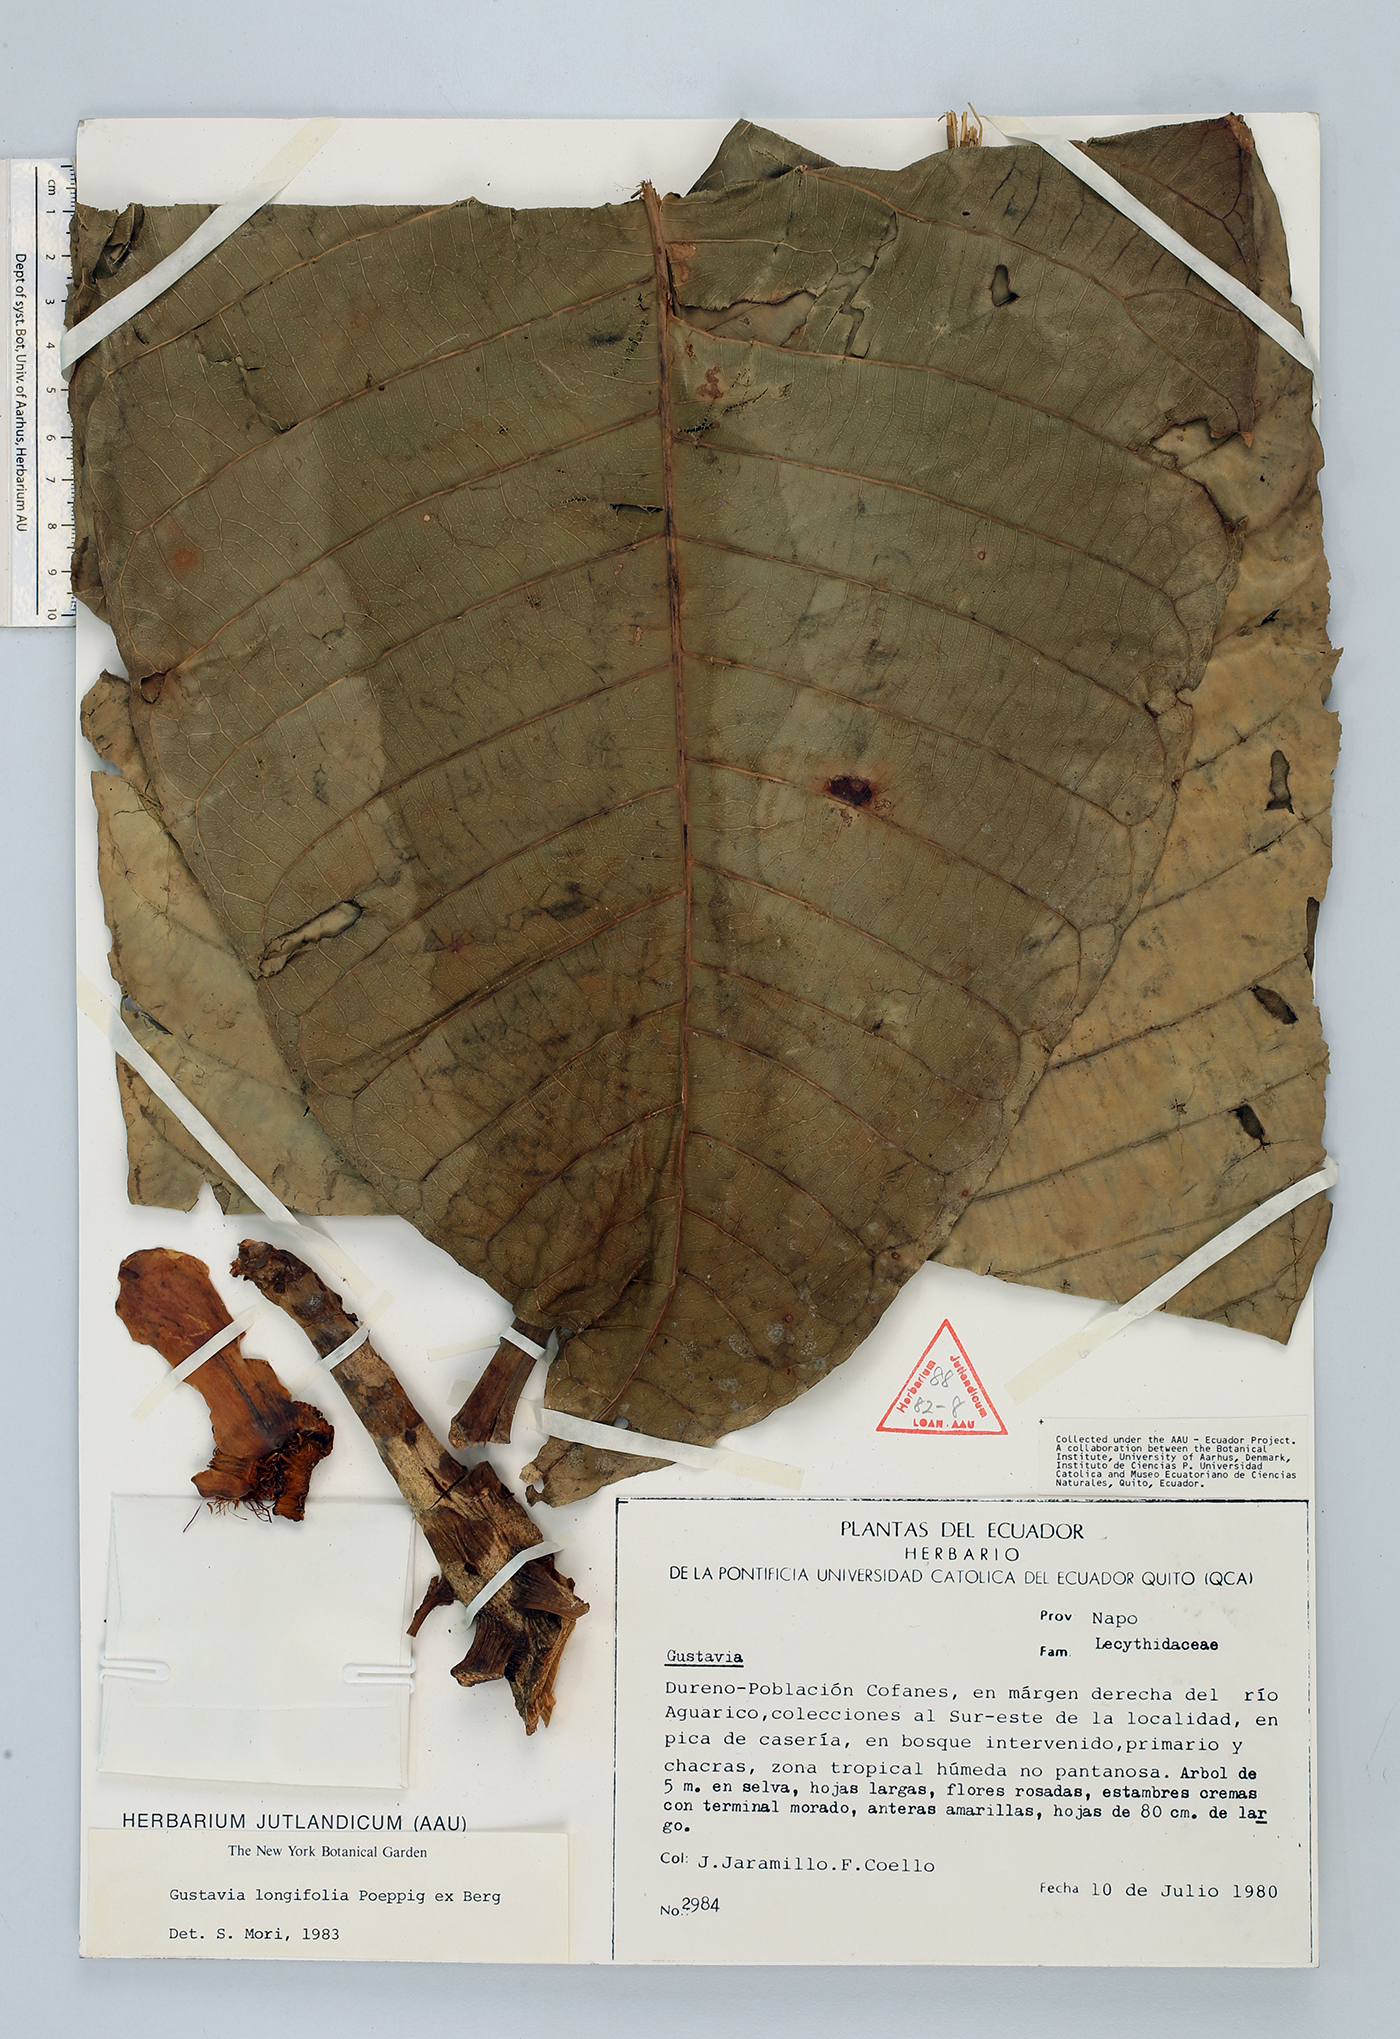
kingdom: Plantae
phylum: Tracheophyta
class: Magnoliopsida
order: Ericales
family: Lecythidaceae
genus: Gustavia
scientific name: Gustavia longifolia
